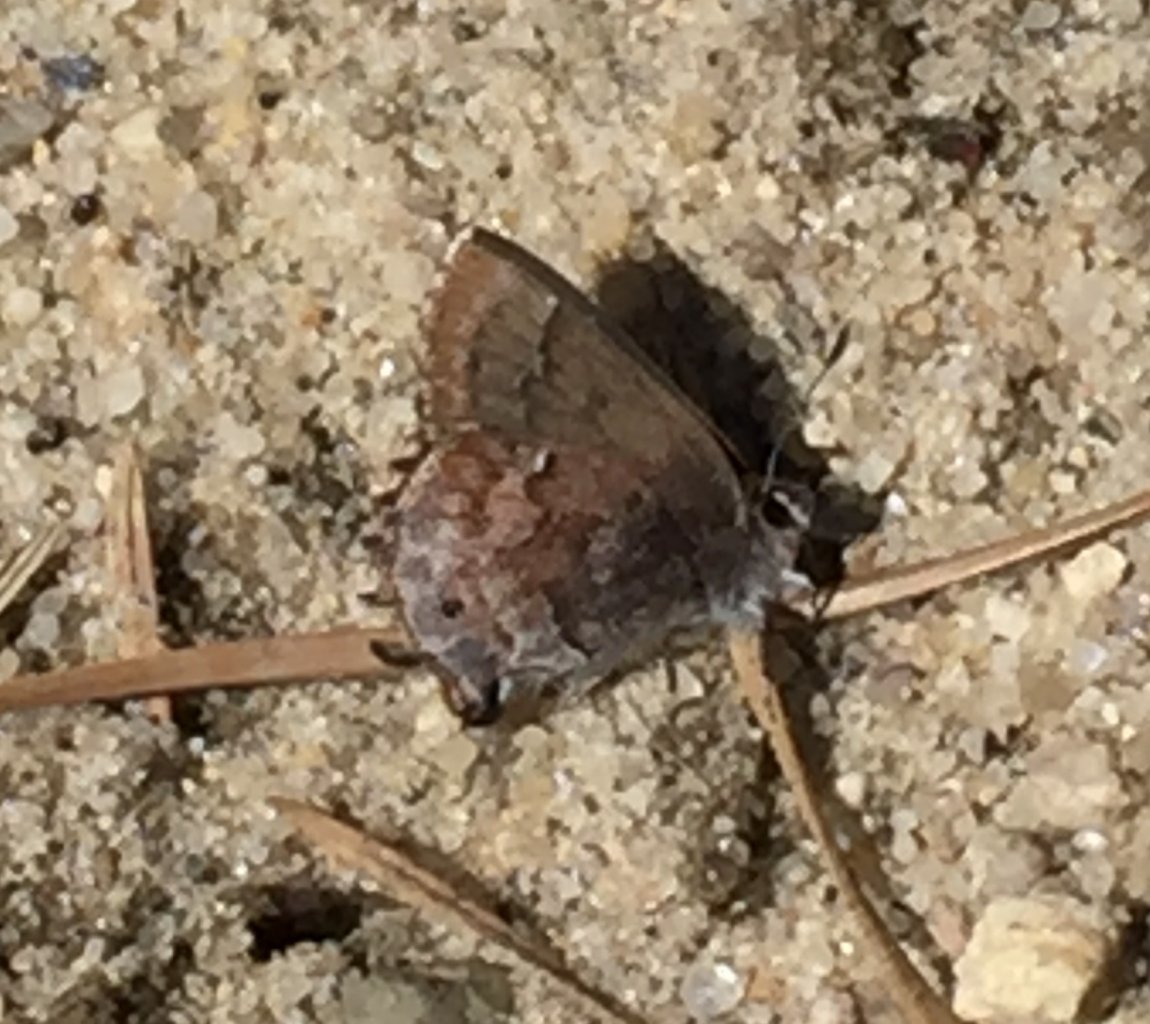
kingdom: Animalia
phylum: Arthropoda
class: Insecta
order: Lepidoptera
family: Lycaenidae
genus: Thecla
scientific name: Thecla irus
